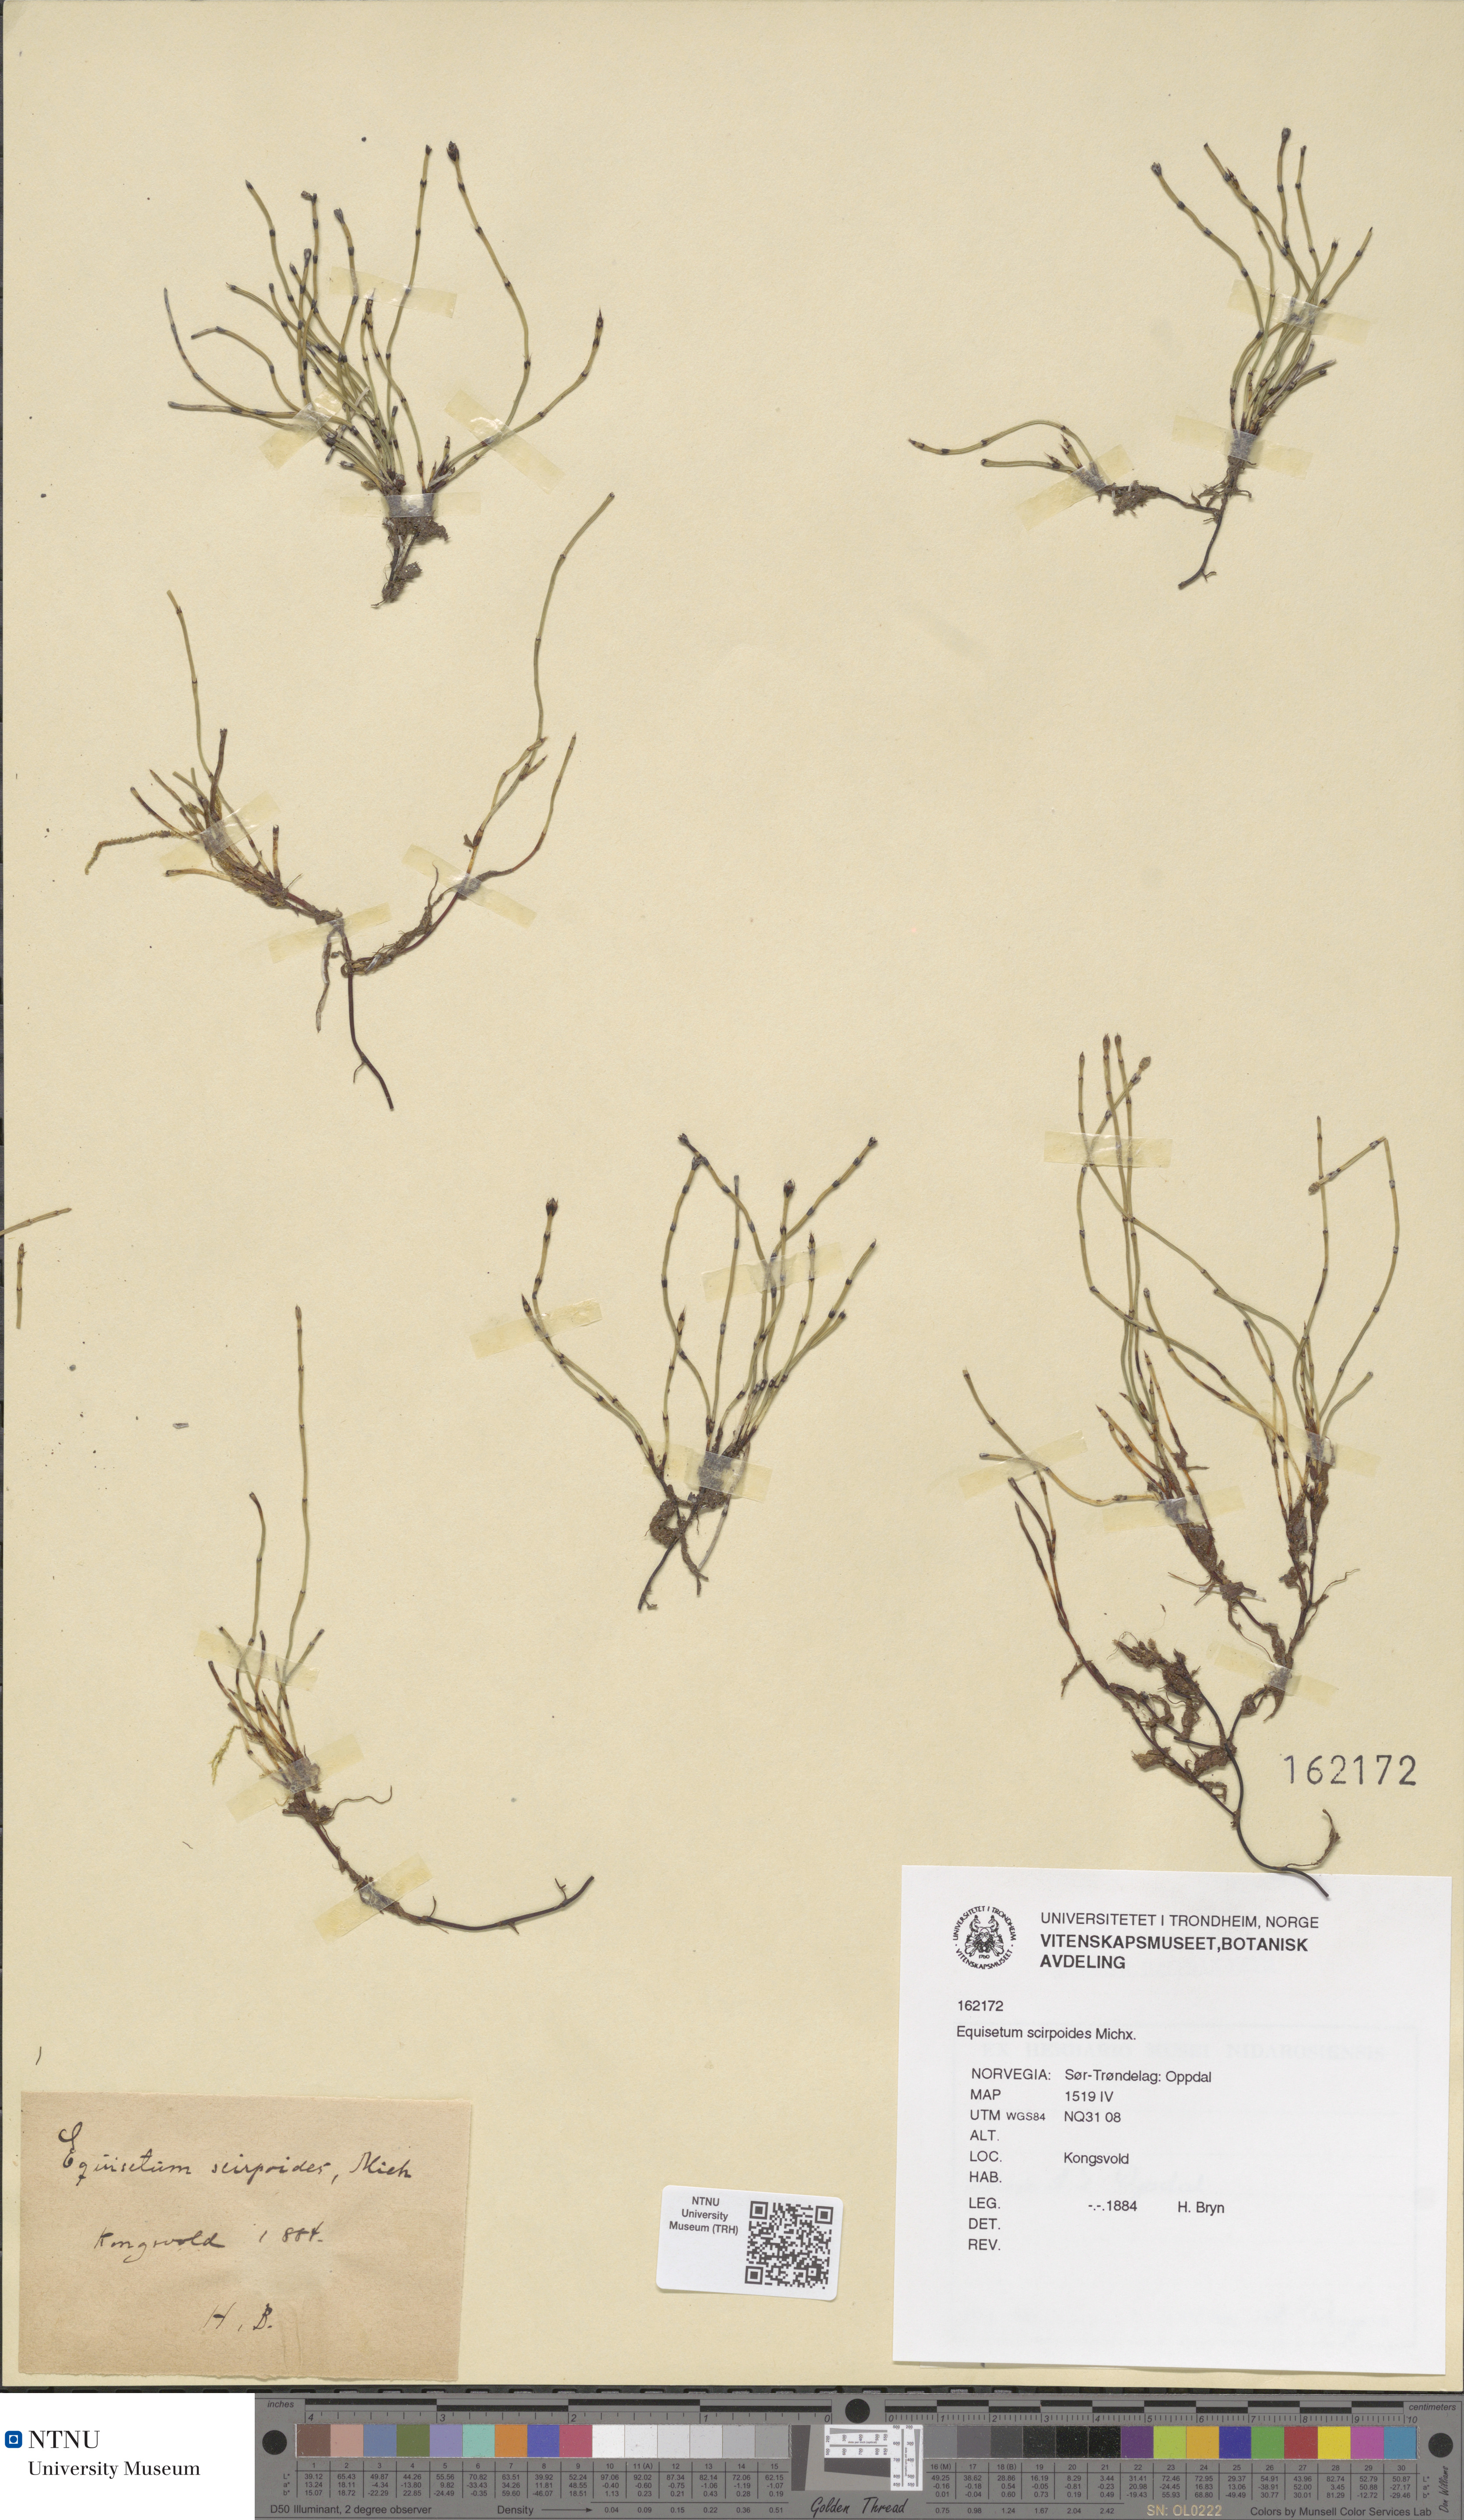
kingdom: Plantae
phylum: Tracheophyta
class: Polypodiopsida
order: Equisetales
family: Equisetaceae
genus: Equisetum
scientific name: Equisetum scirpoides
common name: Delicate horsetail
